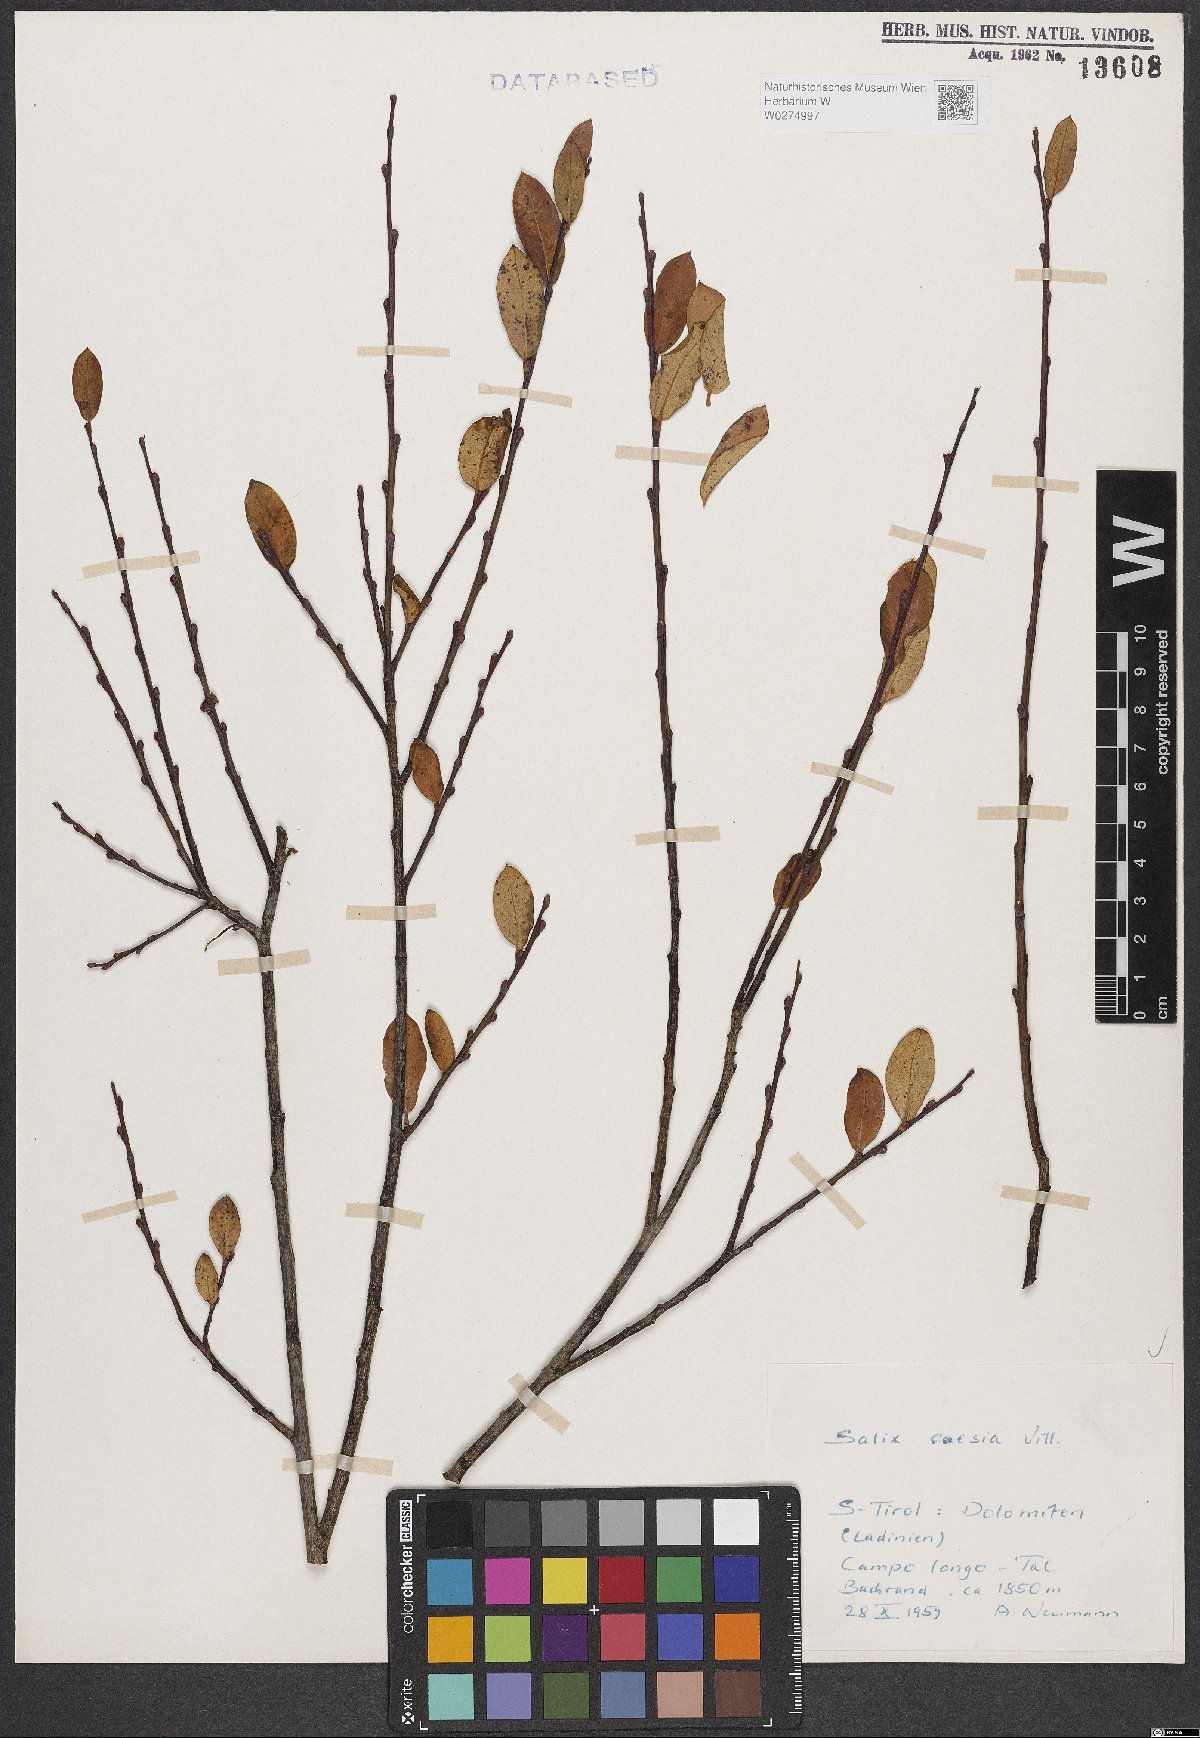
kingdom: Plantae
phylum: Tracheophyta
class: Magnoliopsida
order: Malpighiales
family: Salicaceae
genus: Salix
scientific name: Salix aurita
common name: Eared willow
